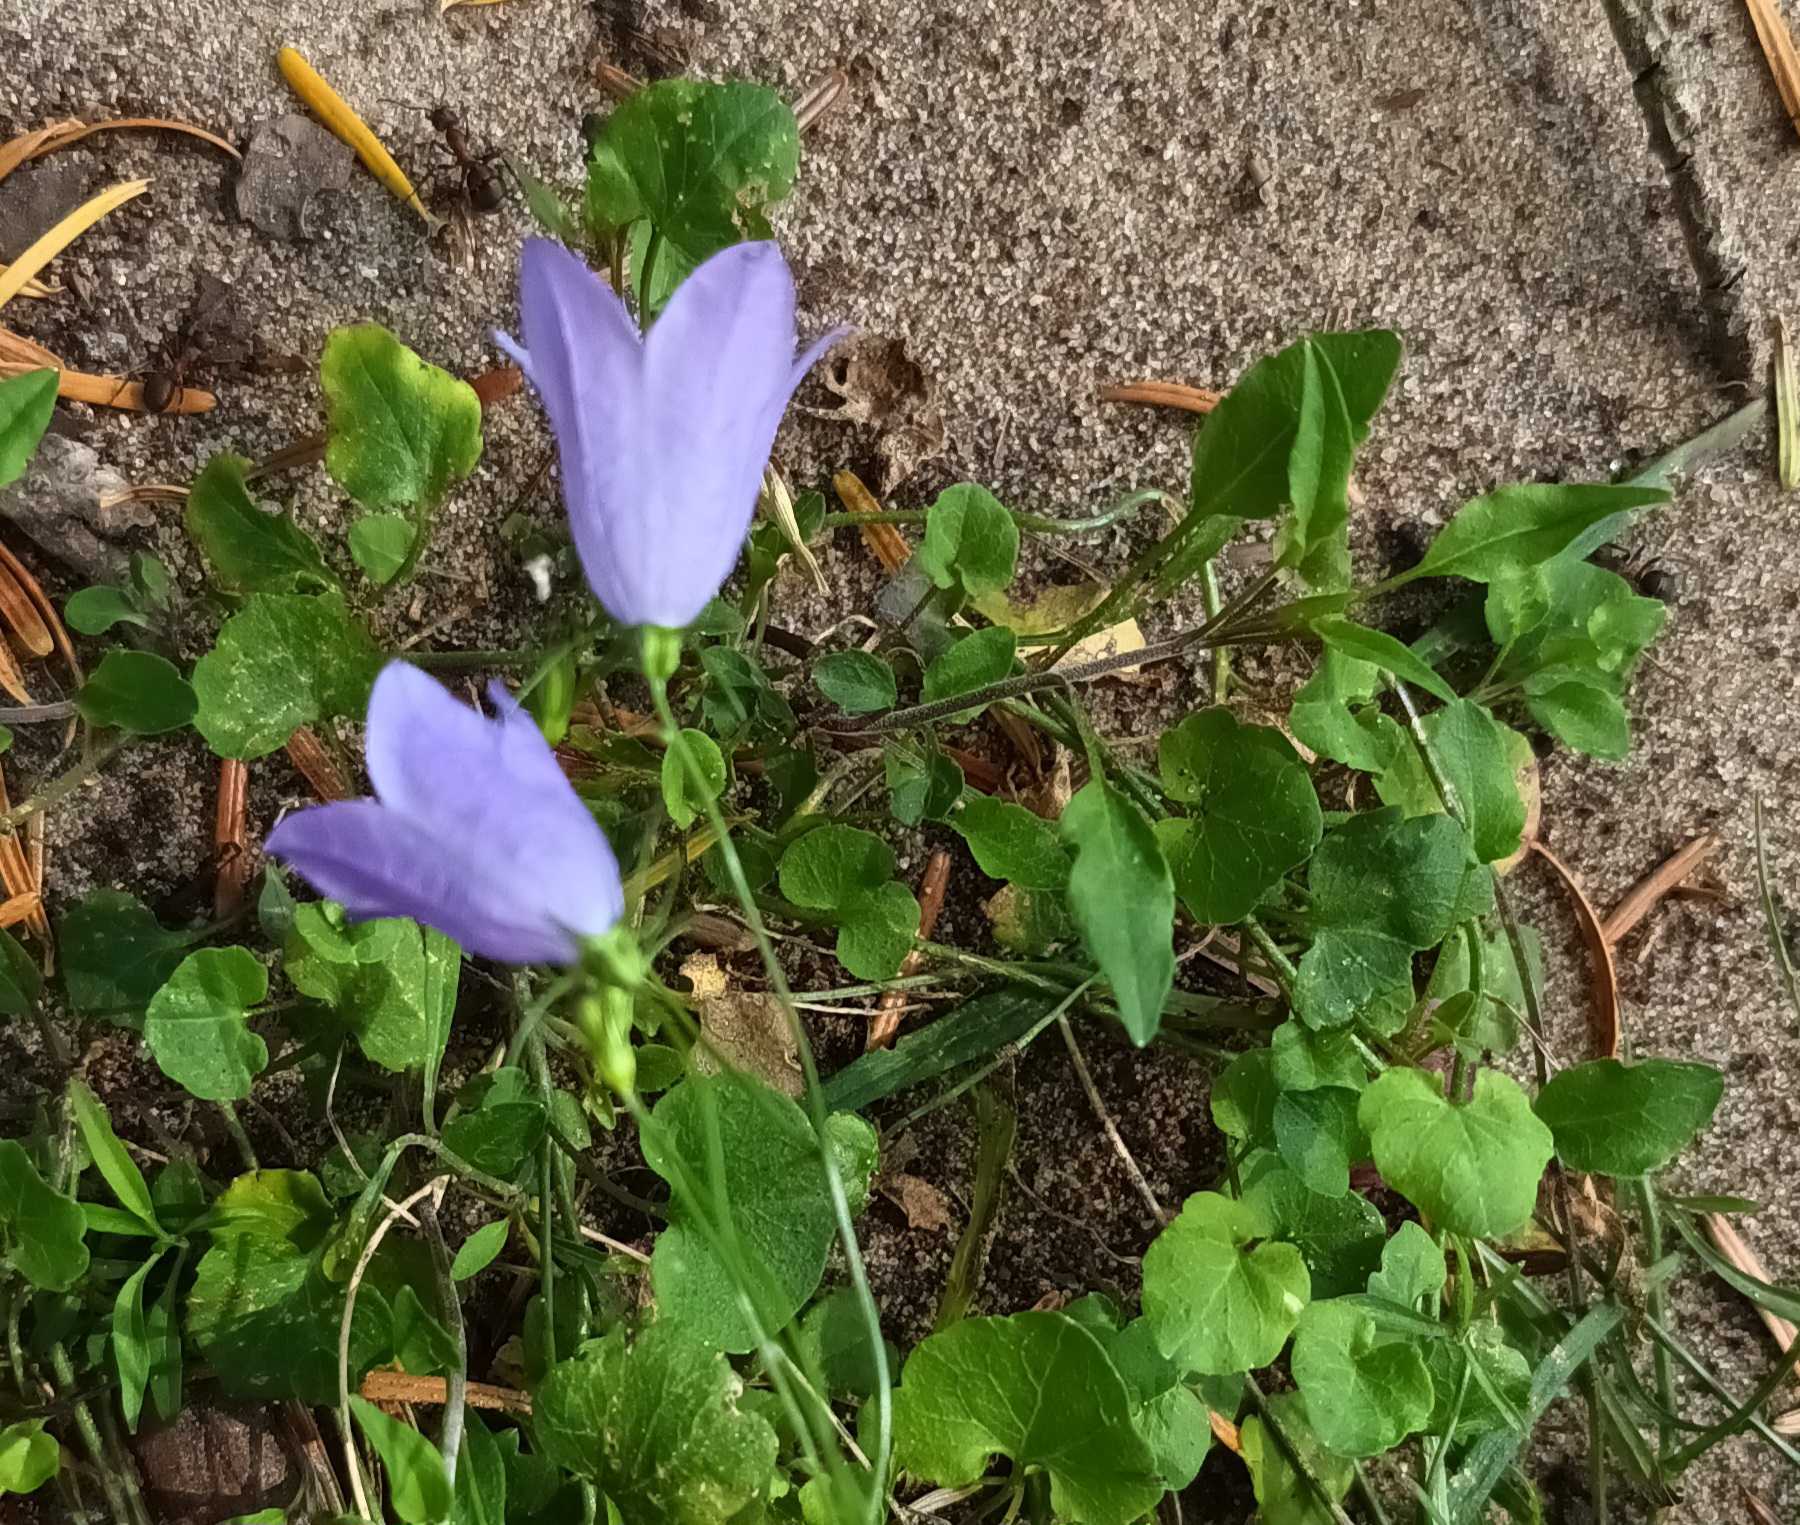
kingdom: Plantae
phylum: Tracheophyta
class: Magnoliopsida
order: Asterales
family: Campanulaceae
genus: Campanula
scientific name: Campanula rotundifolia
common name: Liden klokke
